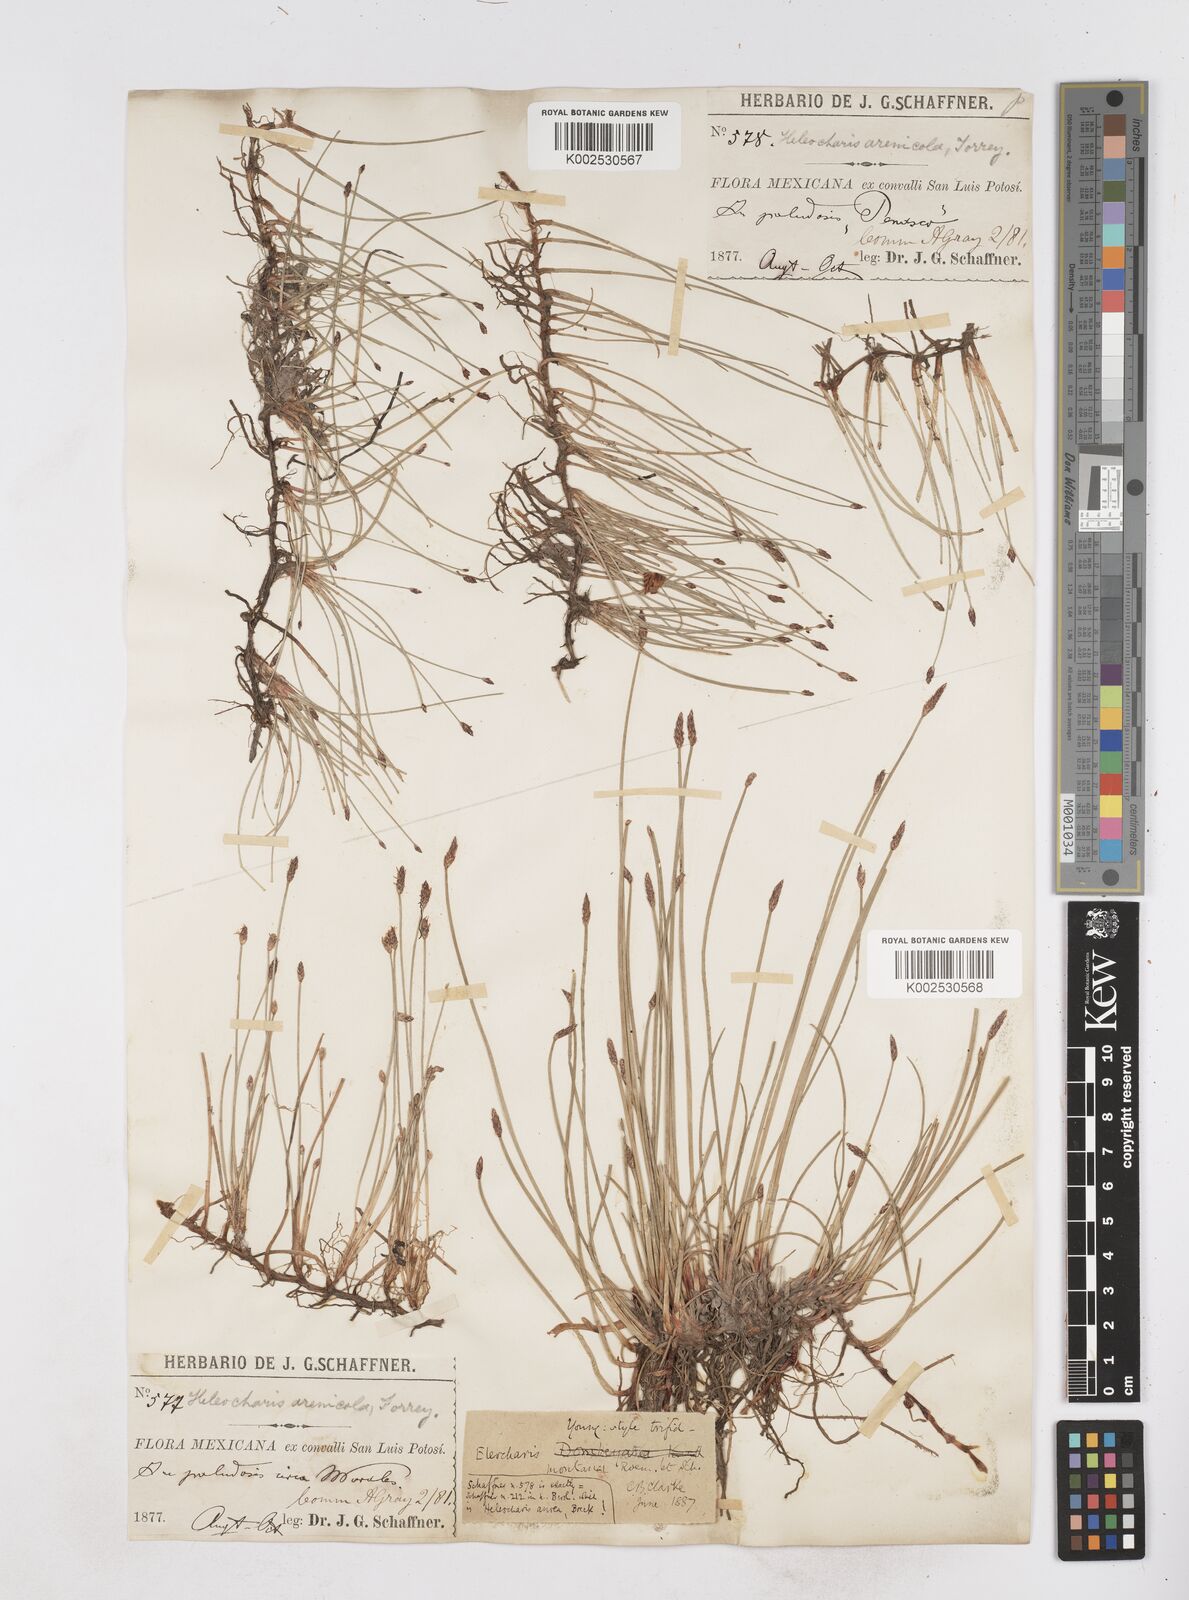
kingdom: Plantae
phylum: Tracheophyta
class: Liliopsida
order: Poales
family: Cyperaceae
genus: Eleocharis
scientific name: Eleocharis montana
